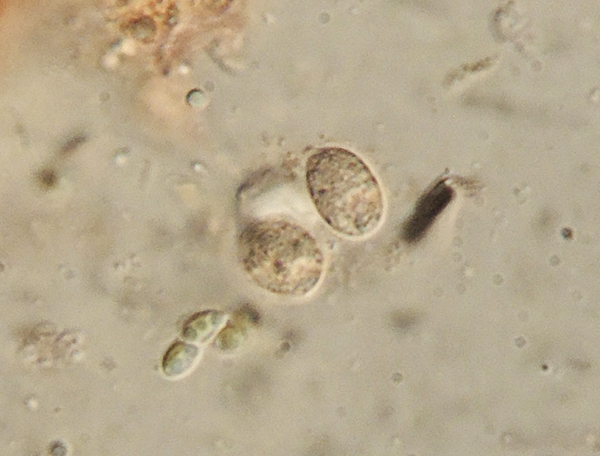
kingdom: Fungi
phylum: Basidiomycota
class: Agaricomycetes
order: Auriculariales
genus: Renatobasidium
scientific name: Renatobasidium notabile
